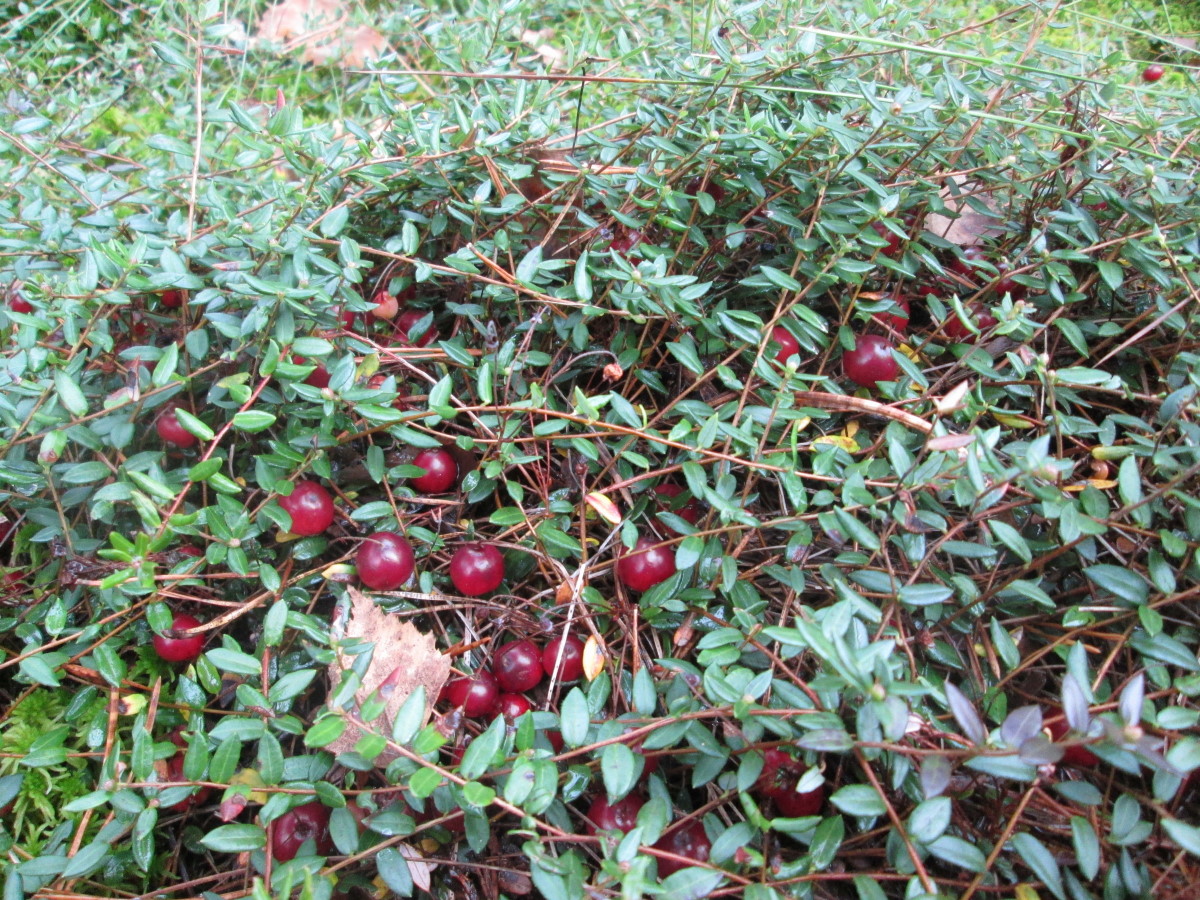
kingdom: Plantae
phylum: Tracheophyta
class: Magnoliopsida
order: Ericales
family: Ericaceae
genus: Vaccinium
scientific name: Vaccinium oxycoccos
